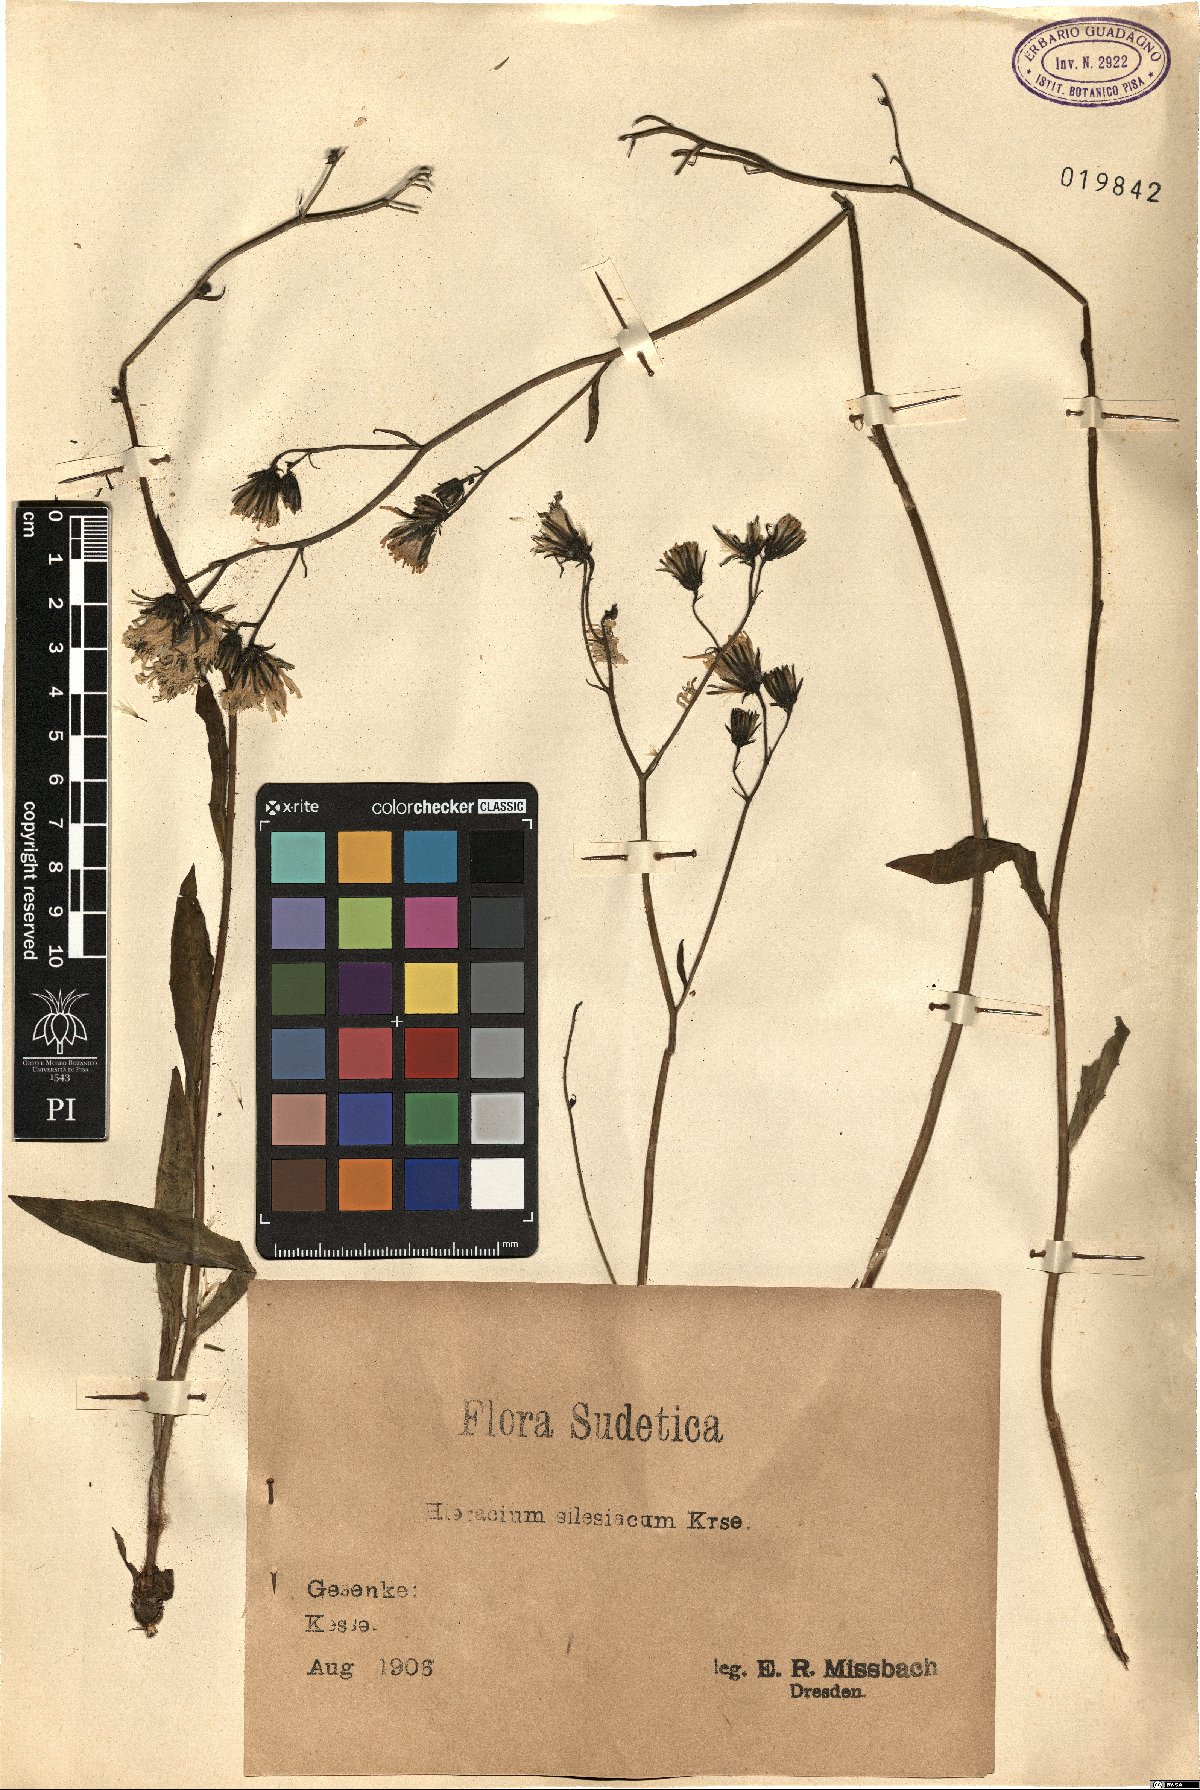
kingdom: Plantae
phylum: Tracheophyta
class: Magnoliopsida
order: Asterales
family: Asteraceae
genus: Hieracium
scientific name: Hieracium sparsum
